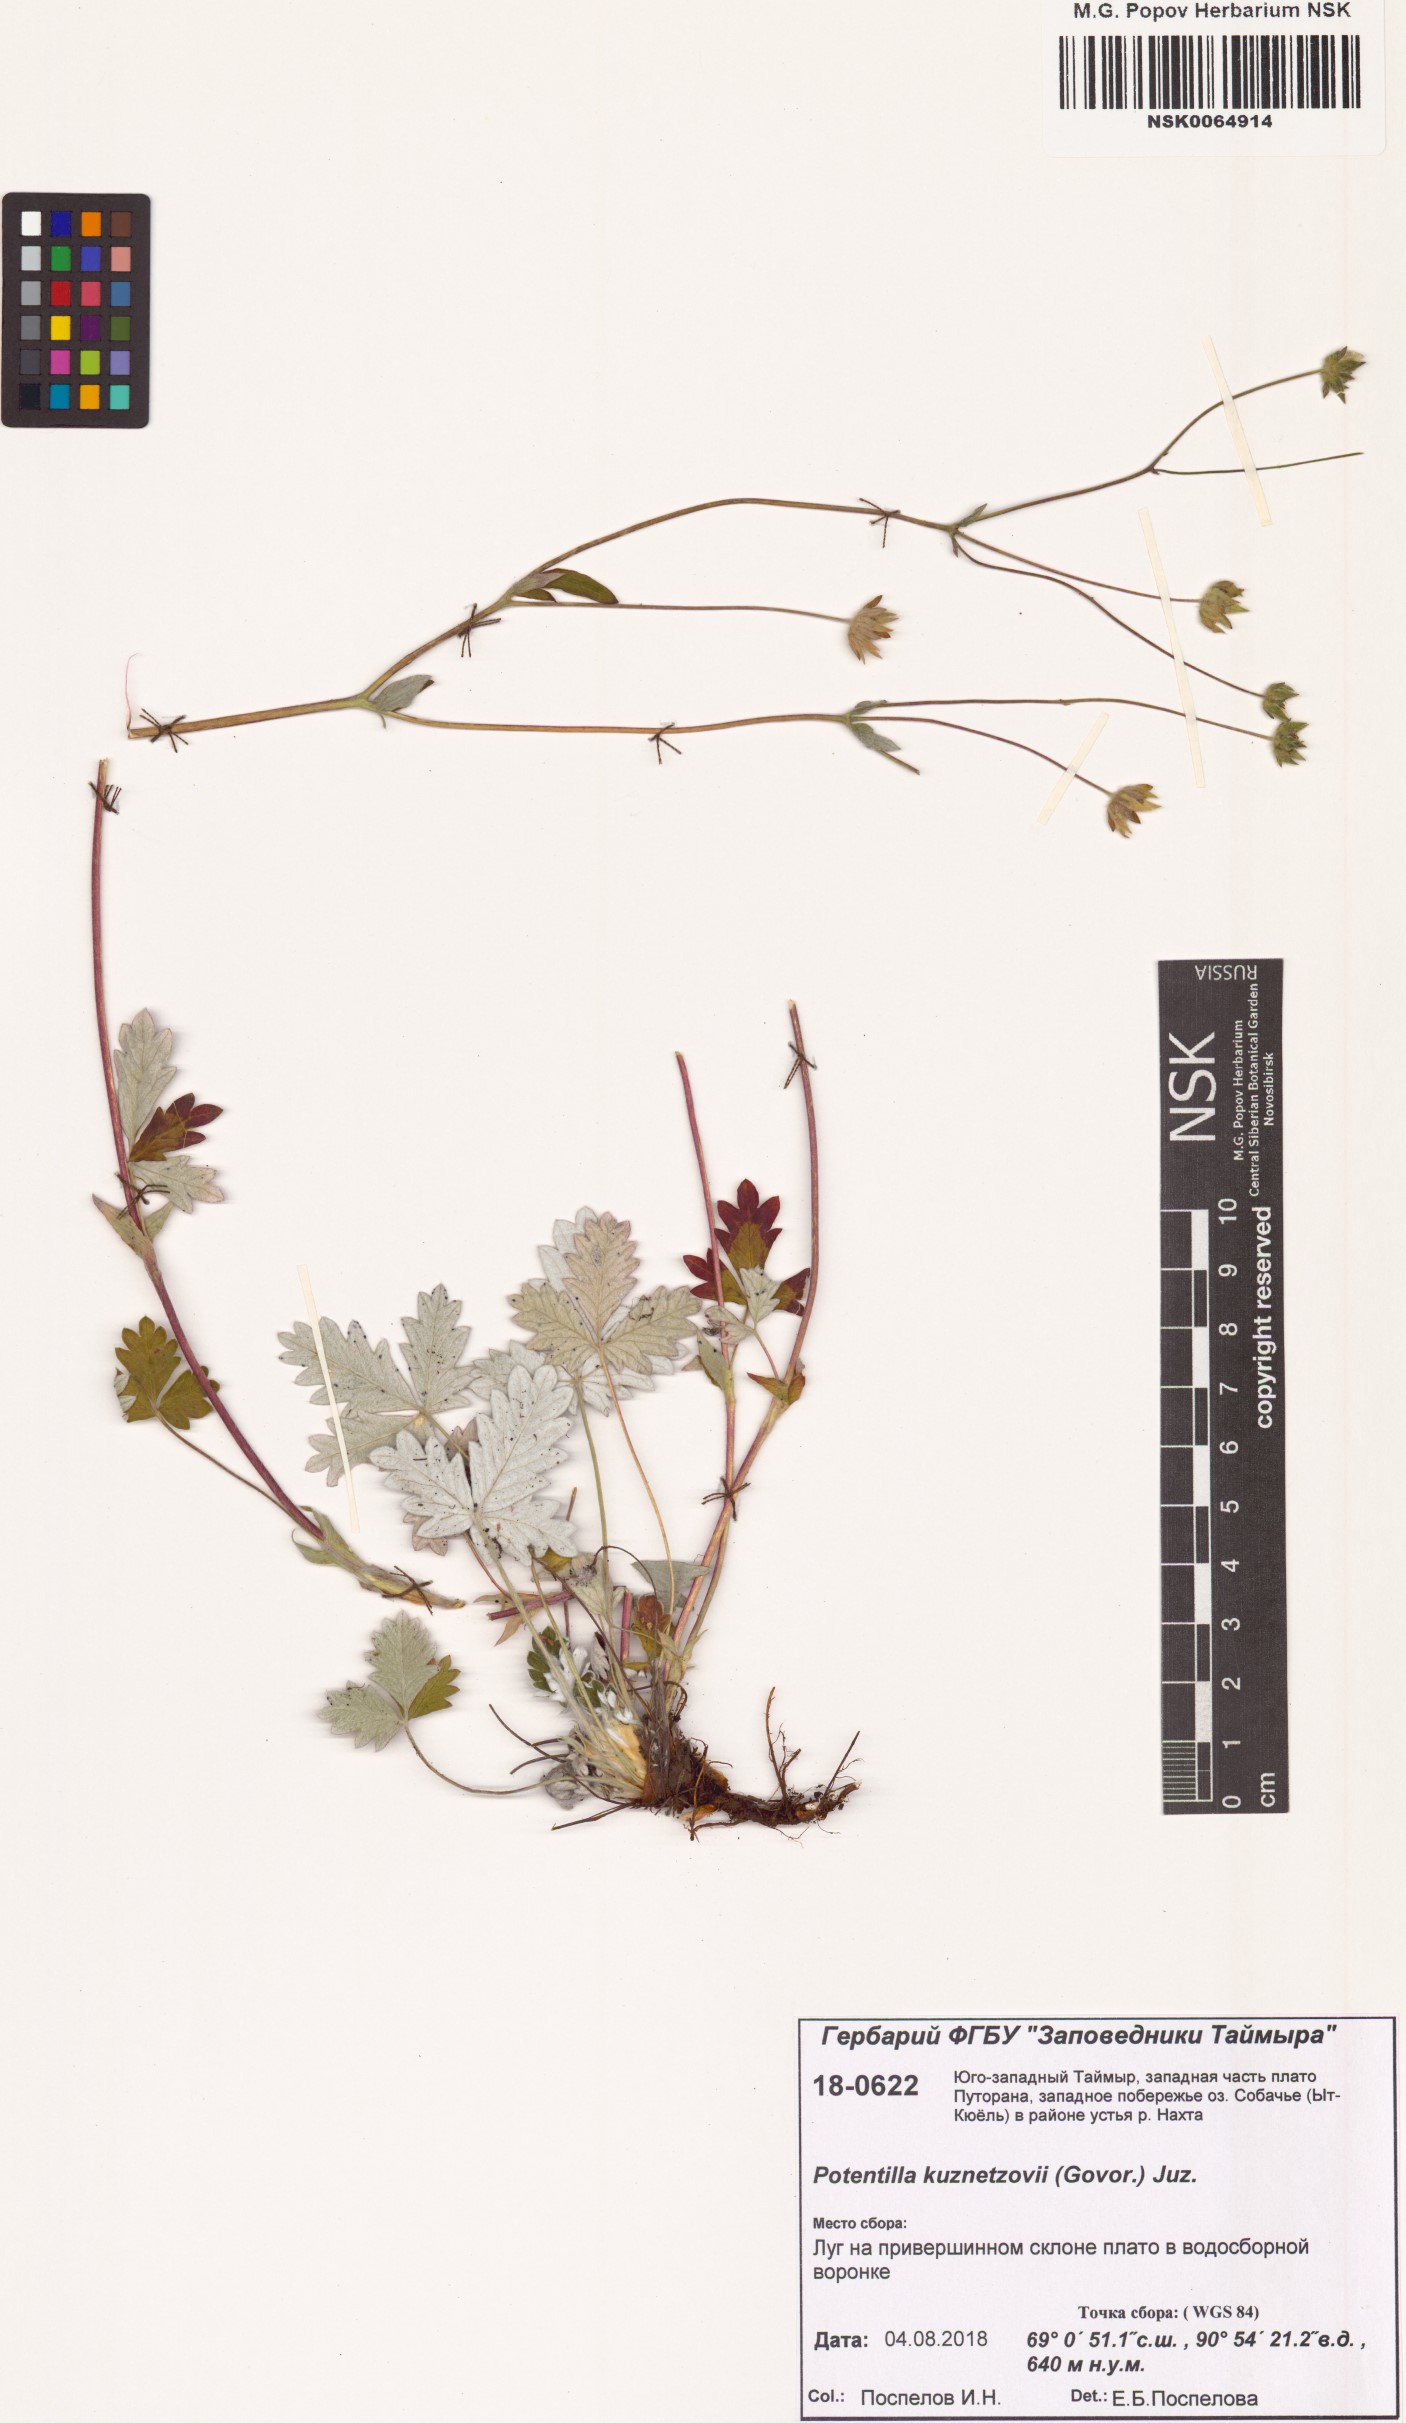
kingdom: Plantae
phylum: Tracheophyta
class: Magnoliopsida
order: Rosales
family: Rosaceae
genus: Potentilla
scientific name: Potentilla chamissonis
